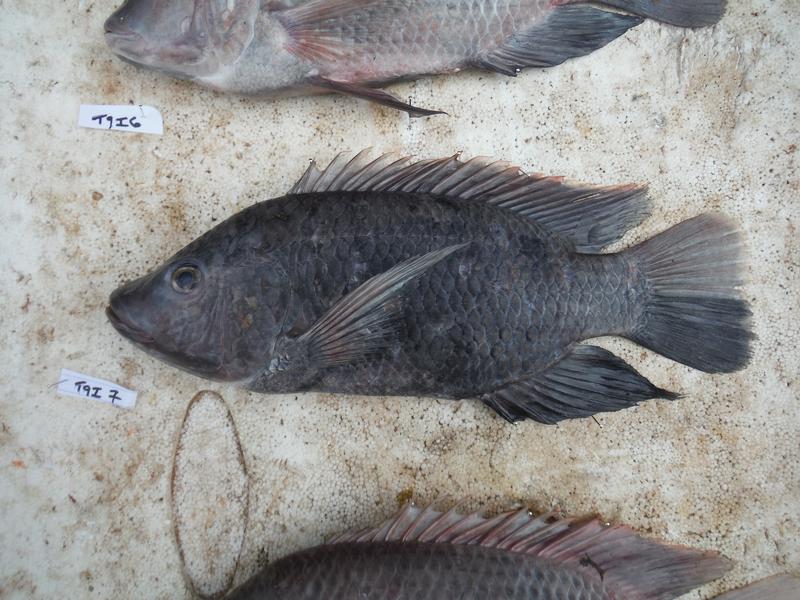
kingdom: Animalia
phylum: Chordata
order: Perciformes
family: Cichlidae
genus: Oreochromis
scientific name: Oreochromis urolepis
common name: Wami tilapia
